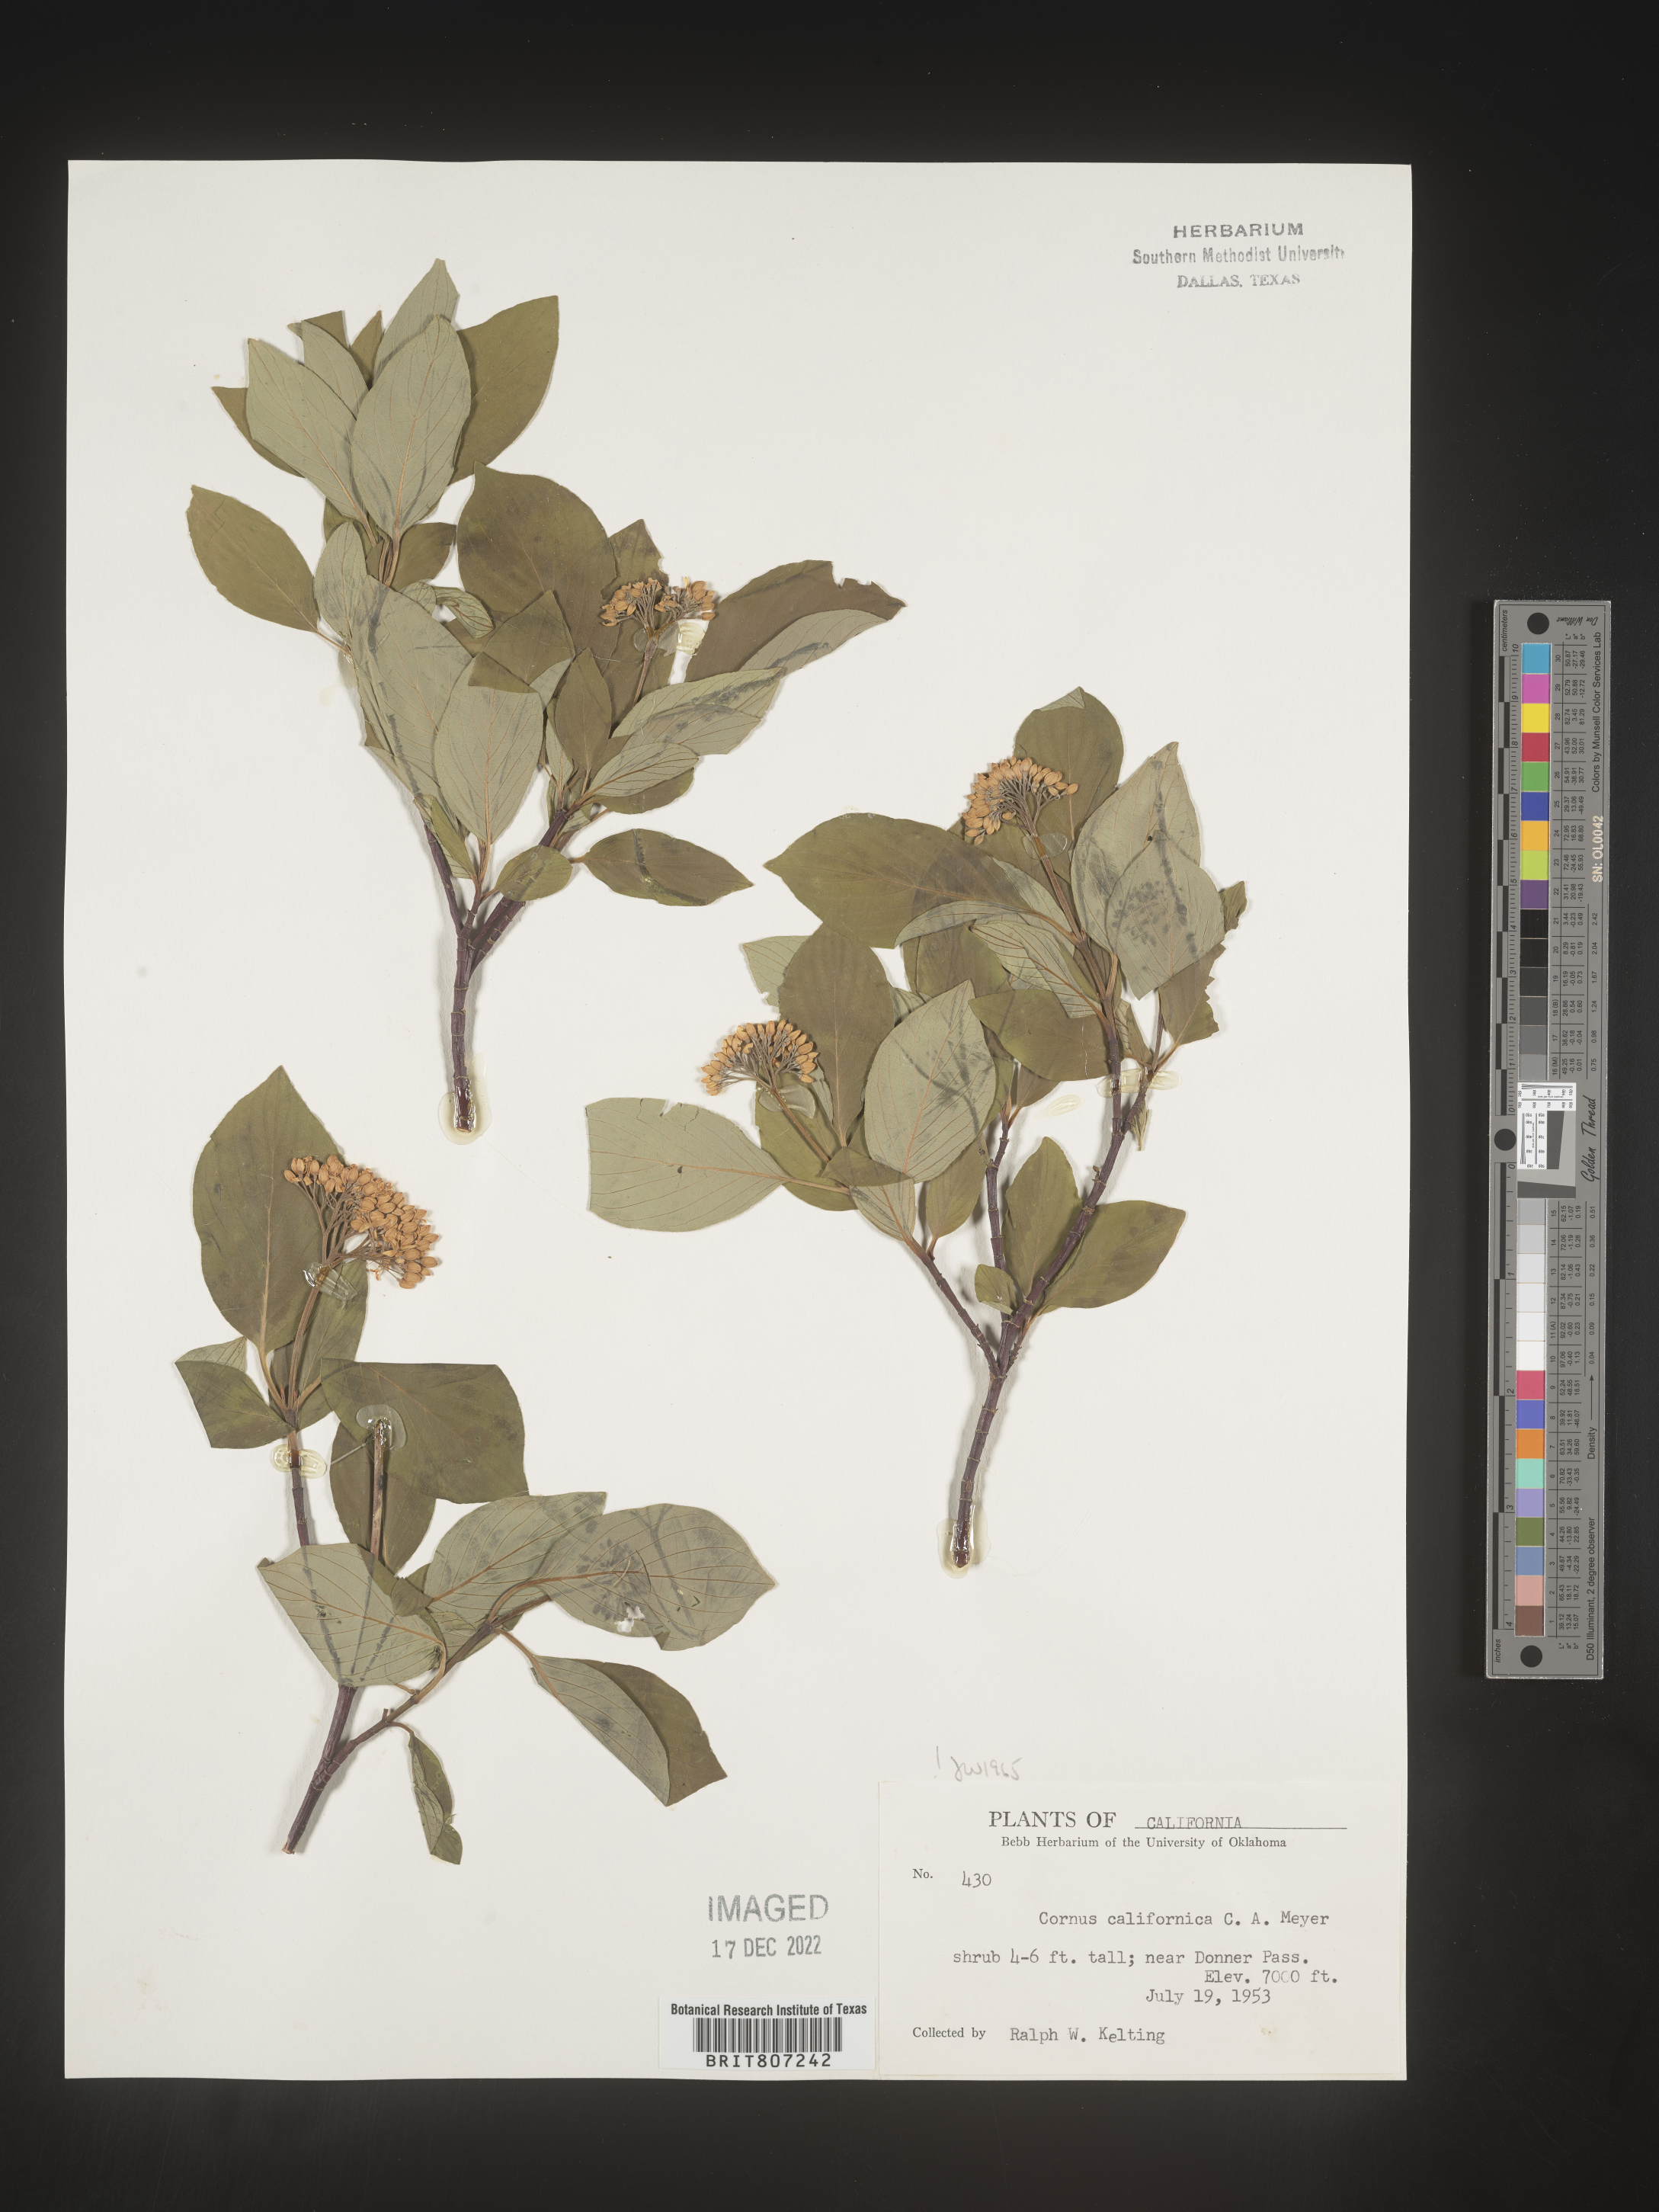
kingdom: Plantae
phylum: Tracheophyta
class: Magnoliopsida
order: Cornales
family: Cornaceae
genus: Cornus
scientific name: Cornus
